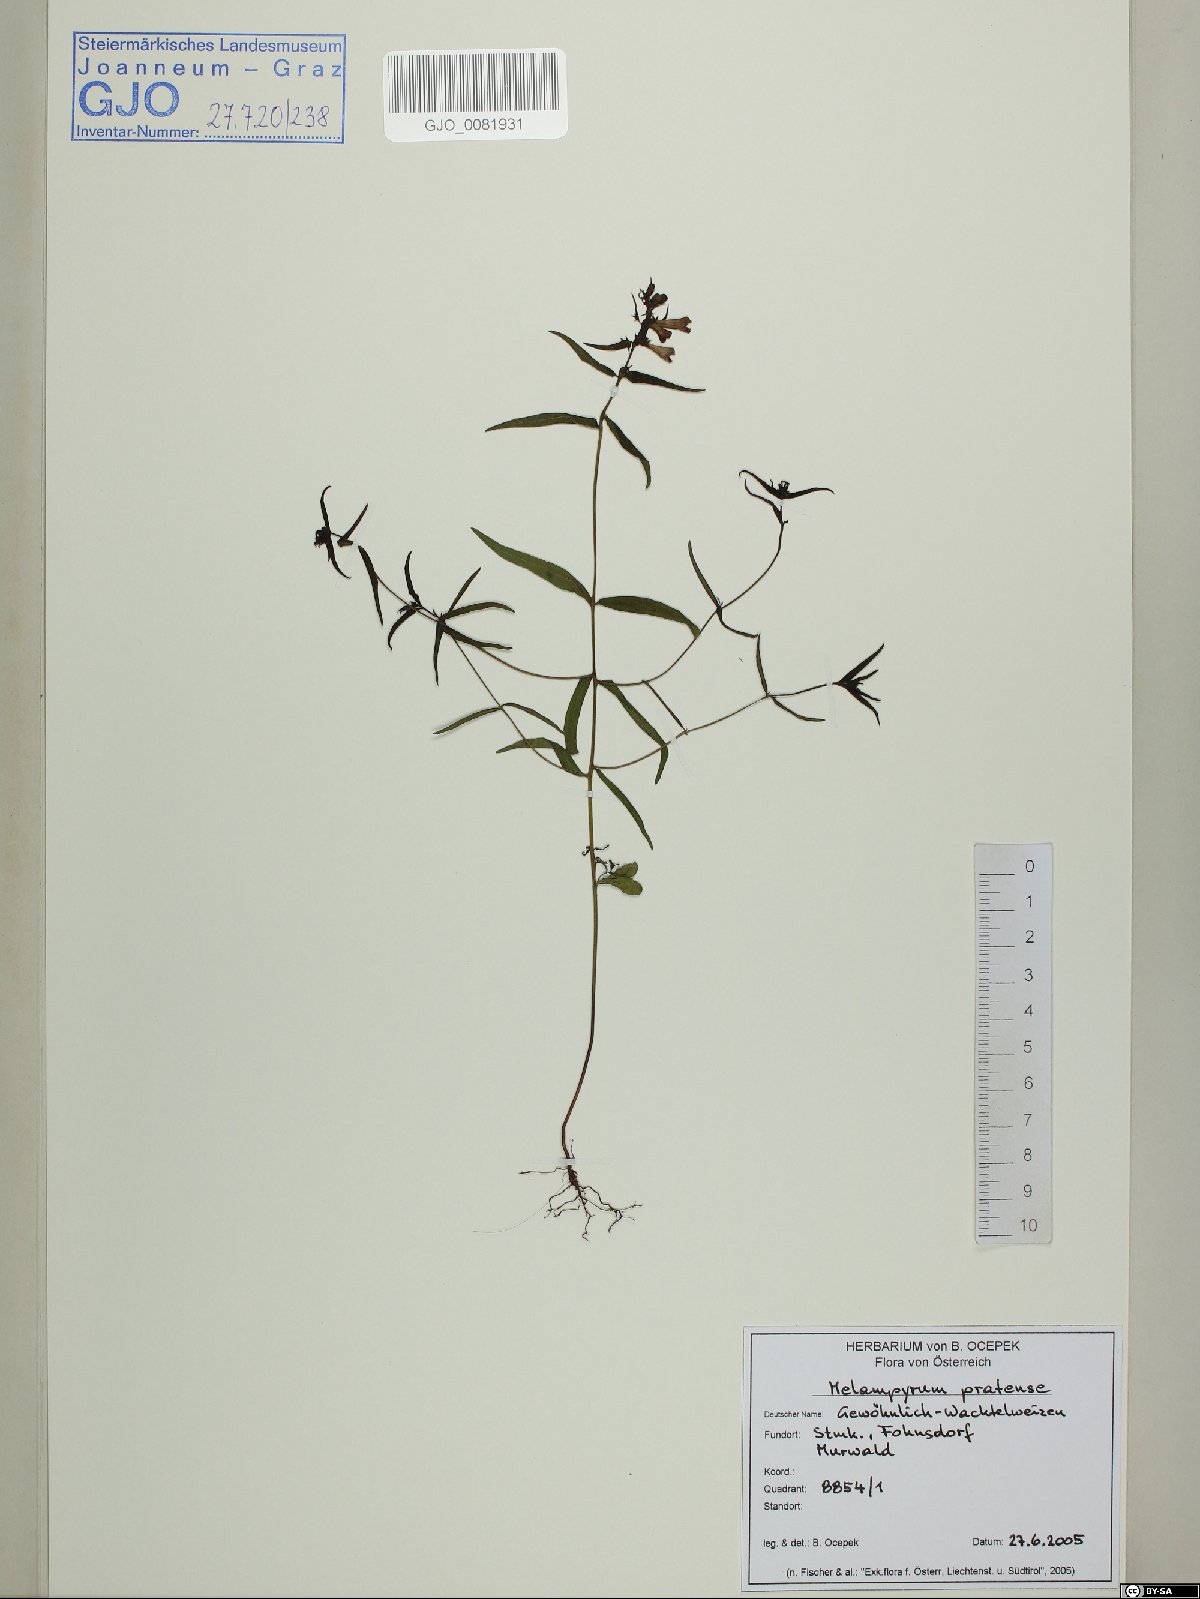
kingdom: Plantae
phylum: Tracheophyta
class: Magnoliopsida
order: Lamiales
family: Orobanchaceae
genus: Melampyrum
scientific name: Melampyrum pratense
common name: Common cow-wheat
